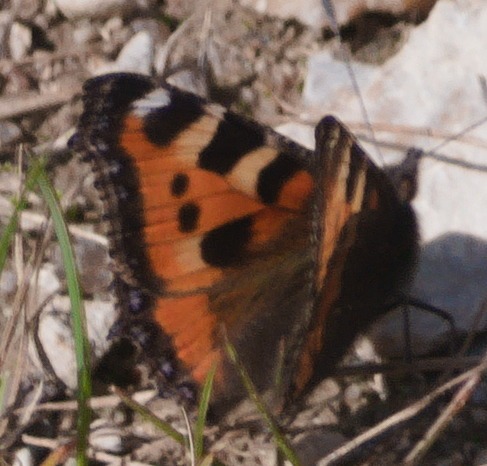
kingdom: Animalia
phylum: Arthropoda
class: Insecta
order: Lepidoptera
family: Nymphalidae
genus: Aglais
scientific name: Aglais urticae
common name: Nældens takvinge
